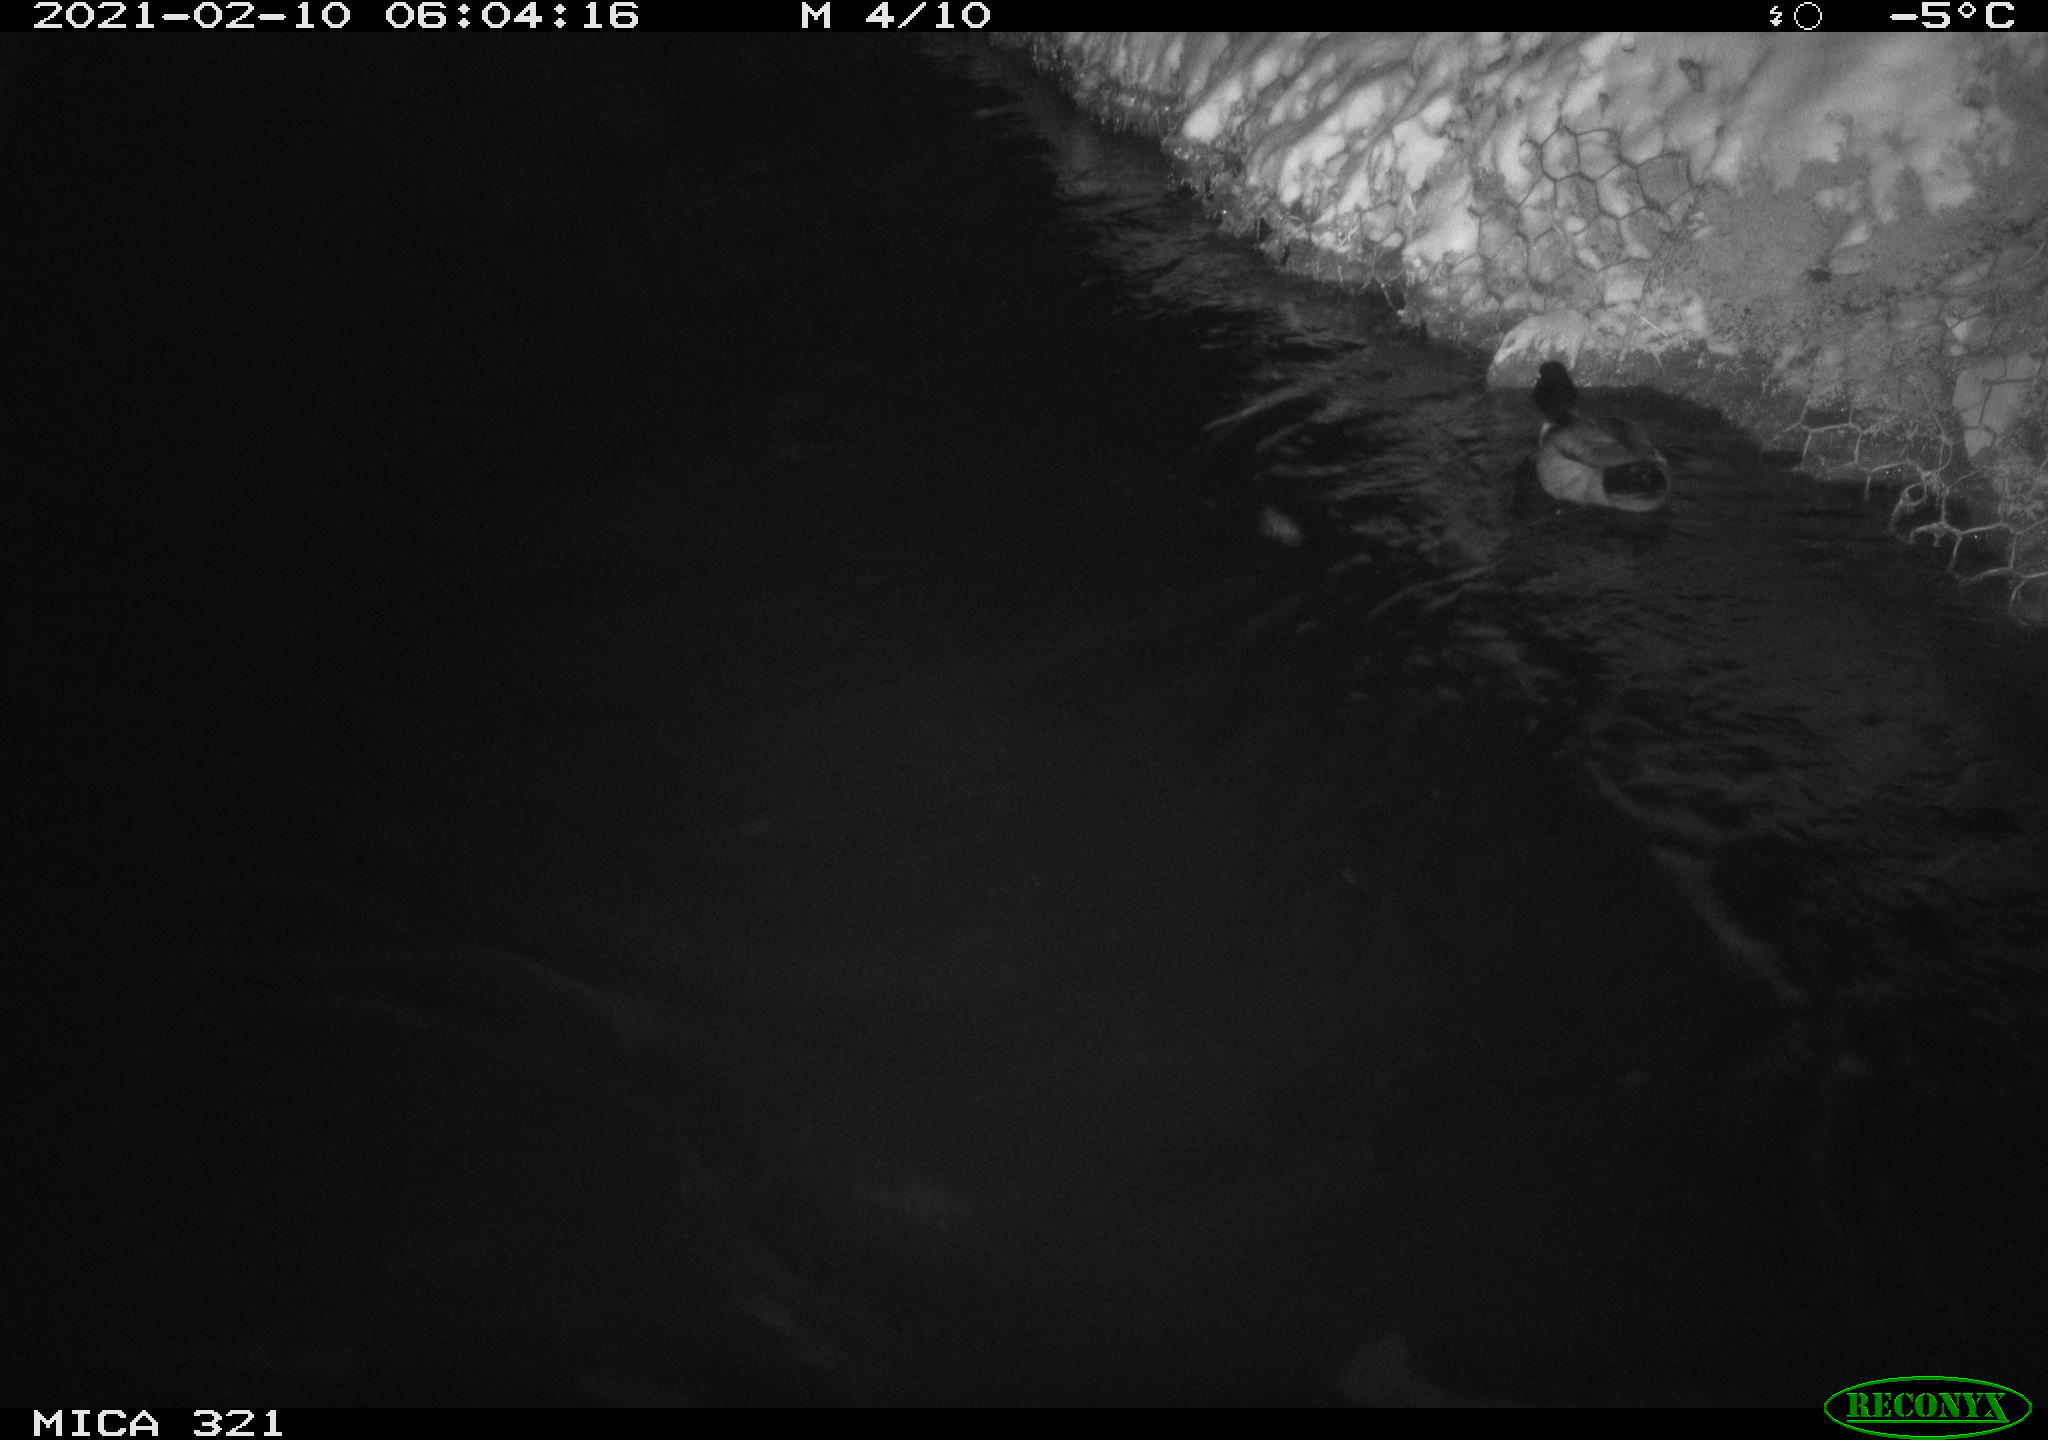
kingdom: Animalia
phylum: Chordata
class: Aves
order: Anseriformes
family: Anatidae
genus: Anas
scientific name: Anas platyrhynchos
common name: Mallard
